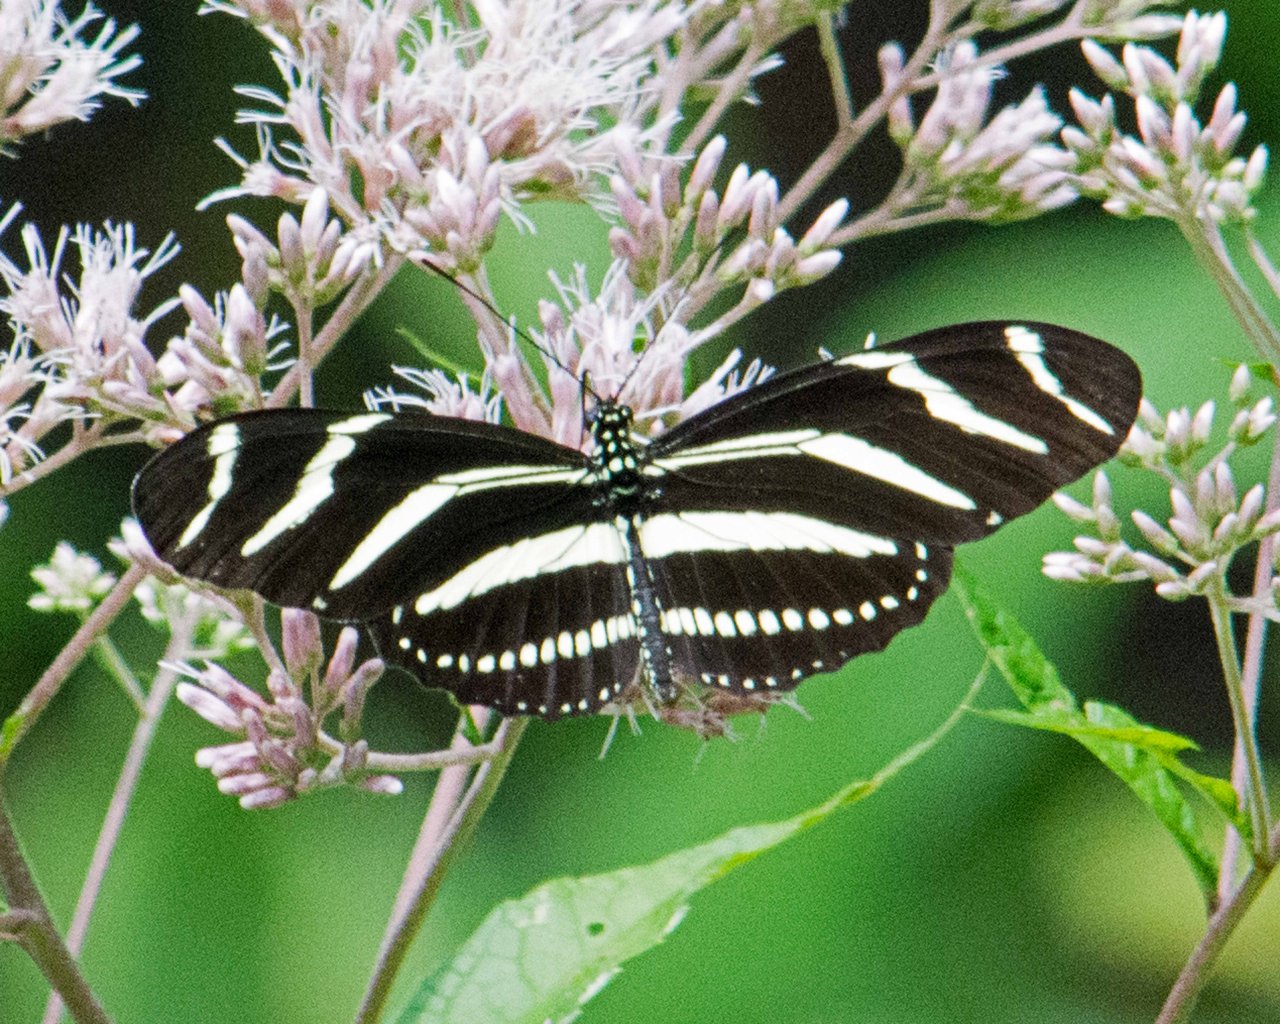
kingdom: Animalia
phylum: Arthropoda
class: Insecta
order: Lepidoptera
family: Nymphalidae
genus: Heliconius
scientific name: Heliconius charithonia
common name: Zebra Longwing
